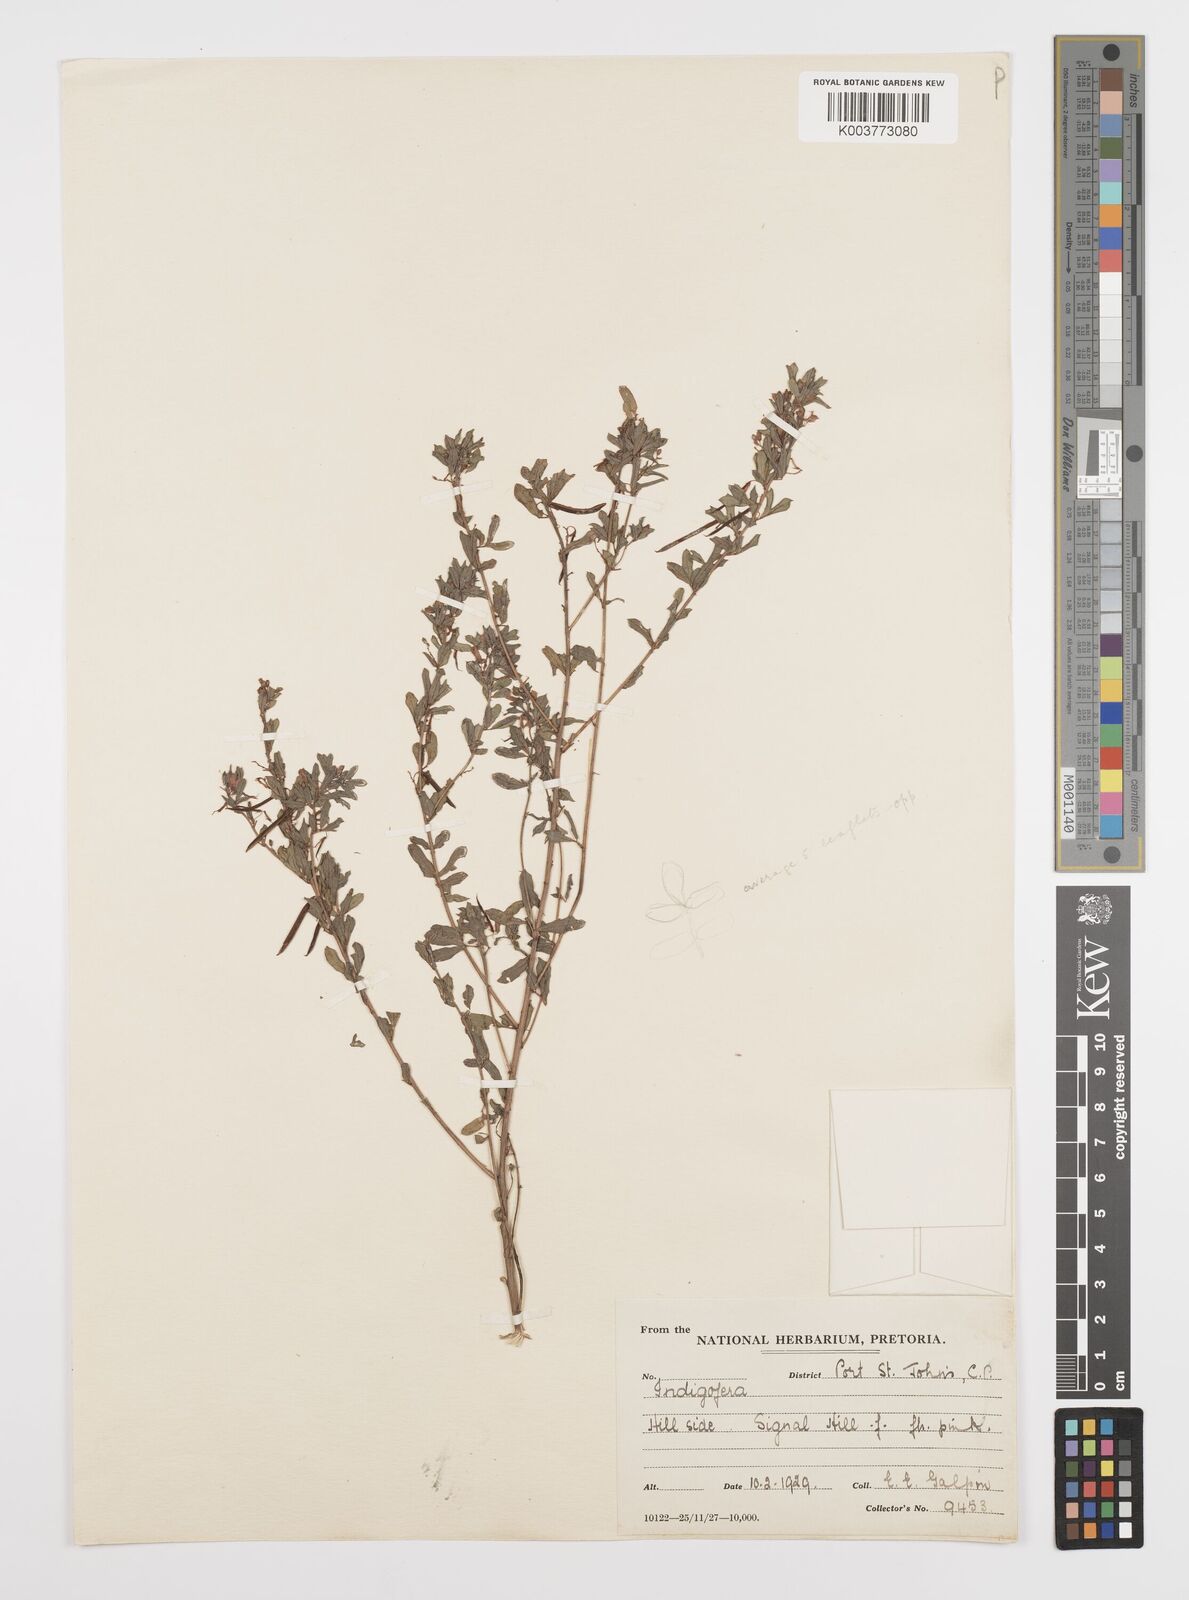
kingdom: Plantae
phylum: Tracheophyta
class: Magnoliopsida
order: Fabales
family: Fabaceae
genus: Indigofera
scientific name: Indigofera
